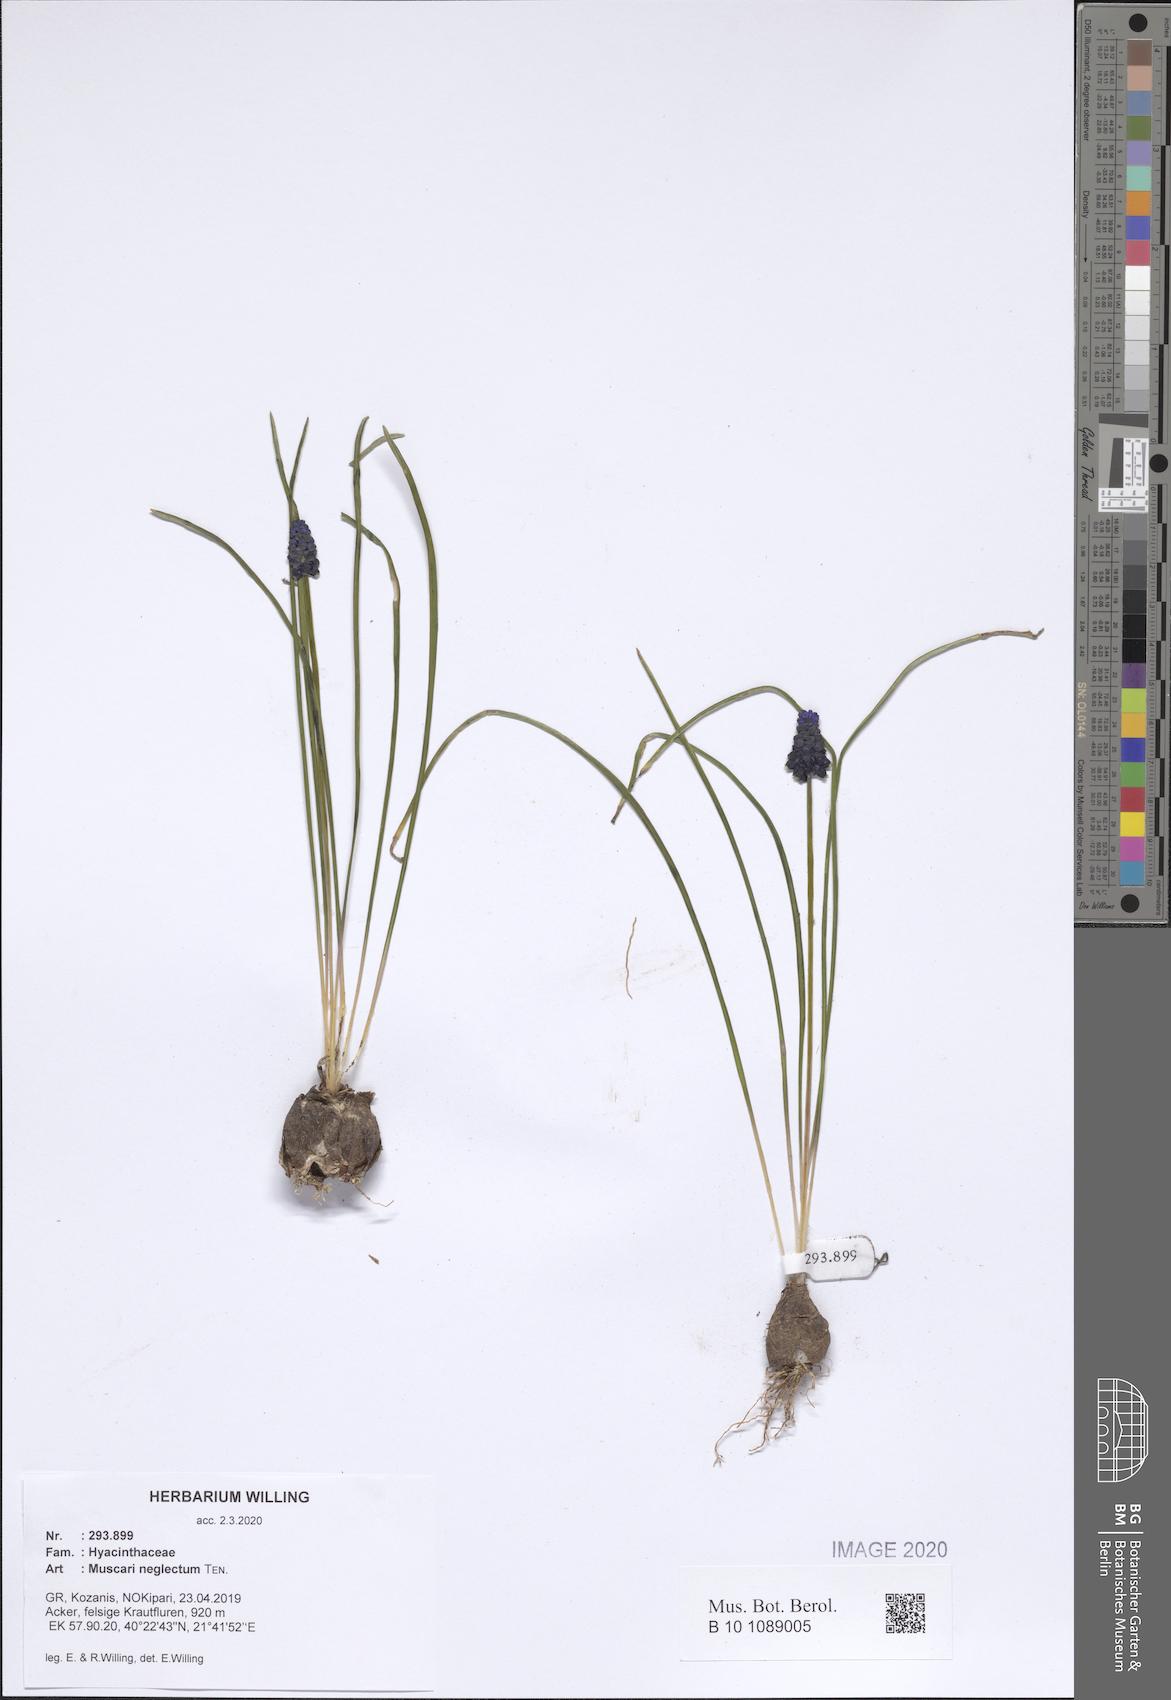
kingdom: Plantae
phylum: Tracheophyta
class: Liliopsida
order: Asparagales
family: Asparagaceae
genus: Muscari
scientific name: Muscari neglectum
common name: Grape-hyacinth
